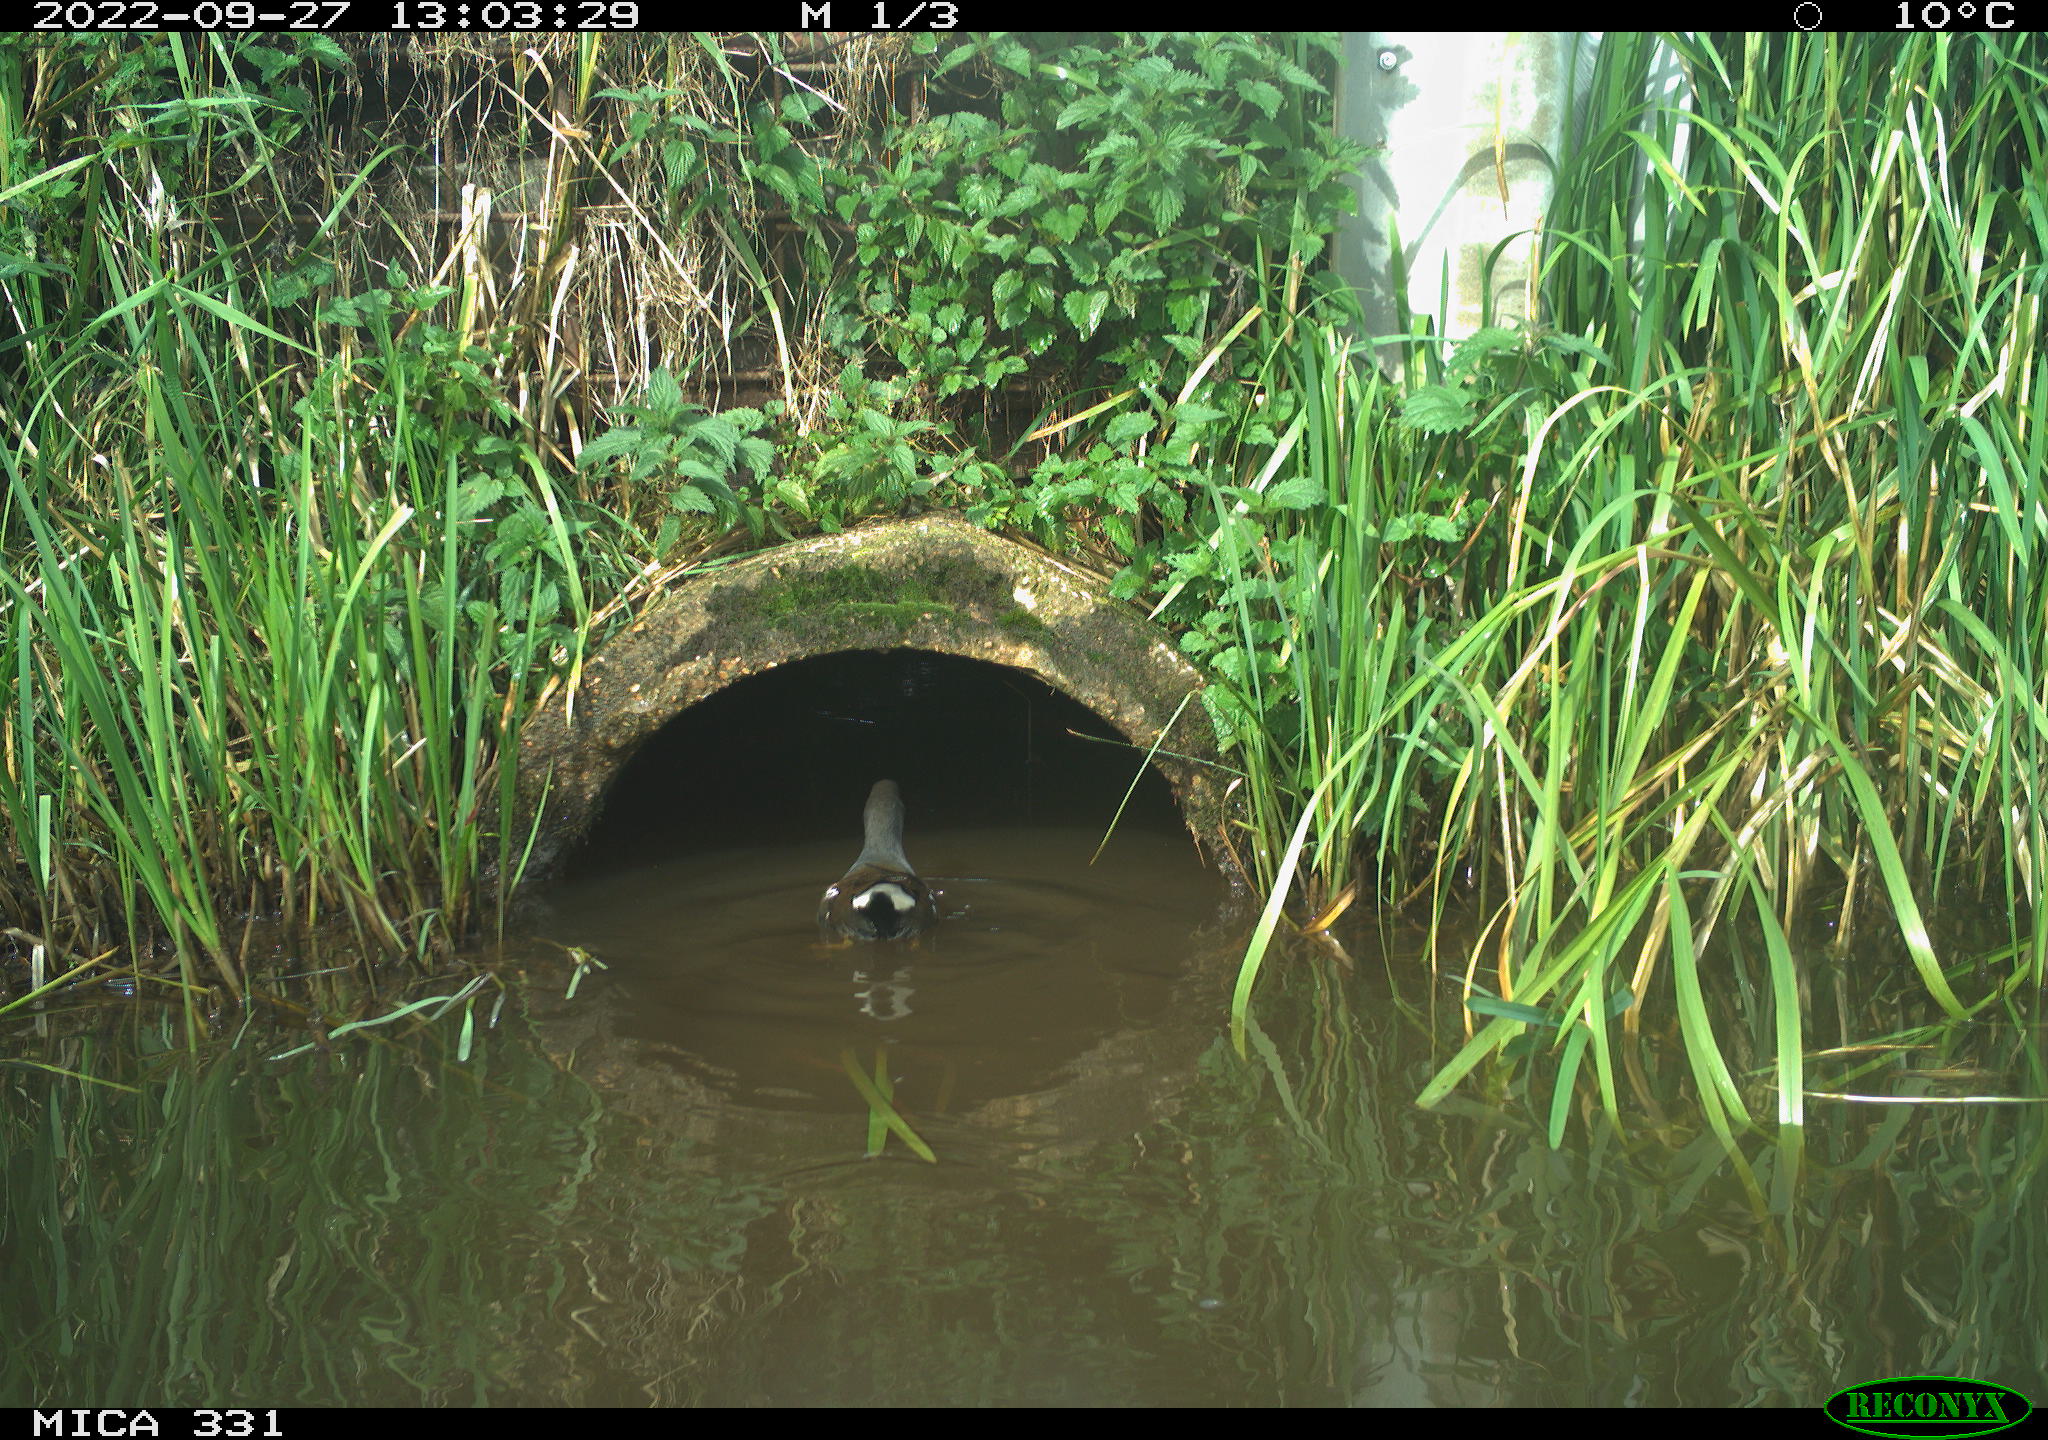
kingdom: Animalia
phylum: Chordata
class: Aves
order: Gruiformes
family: Rallidae
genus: Gallinula
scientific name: Gallinula chloropus
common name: Common moorhen
